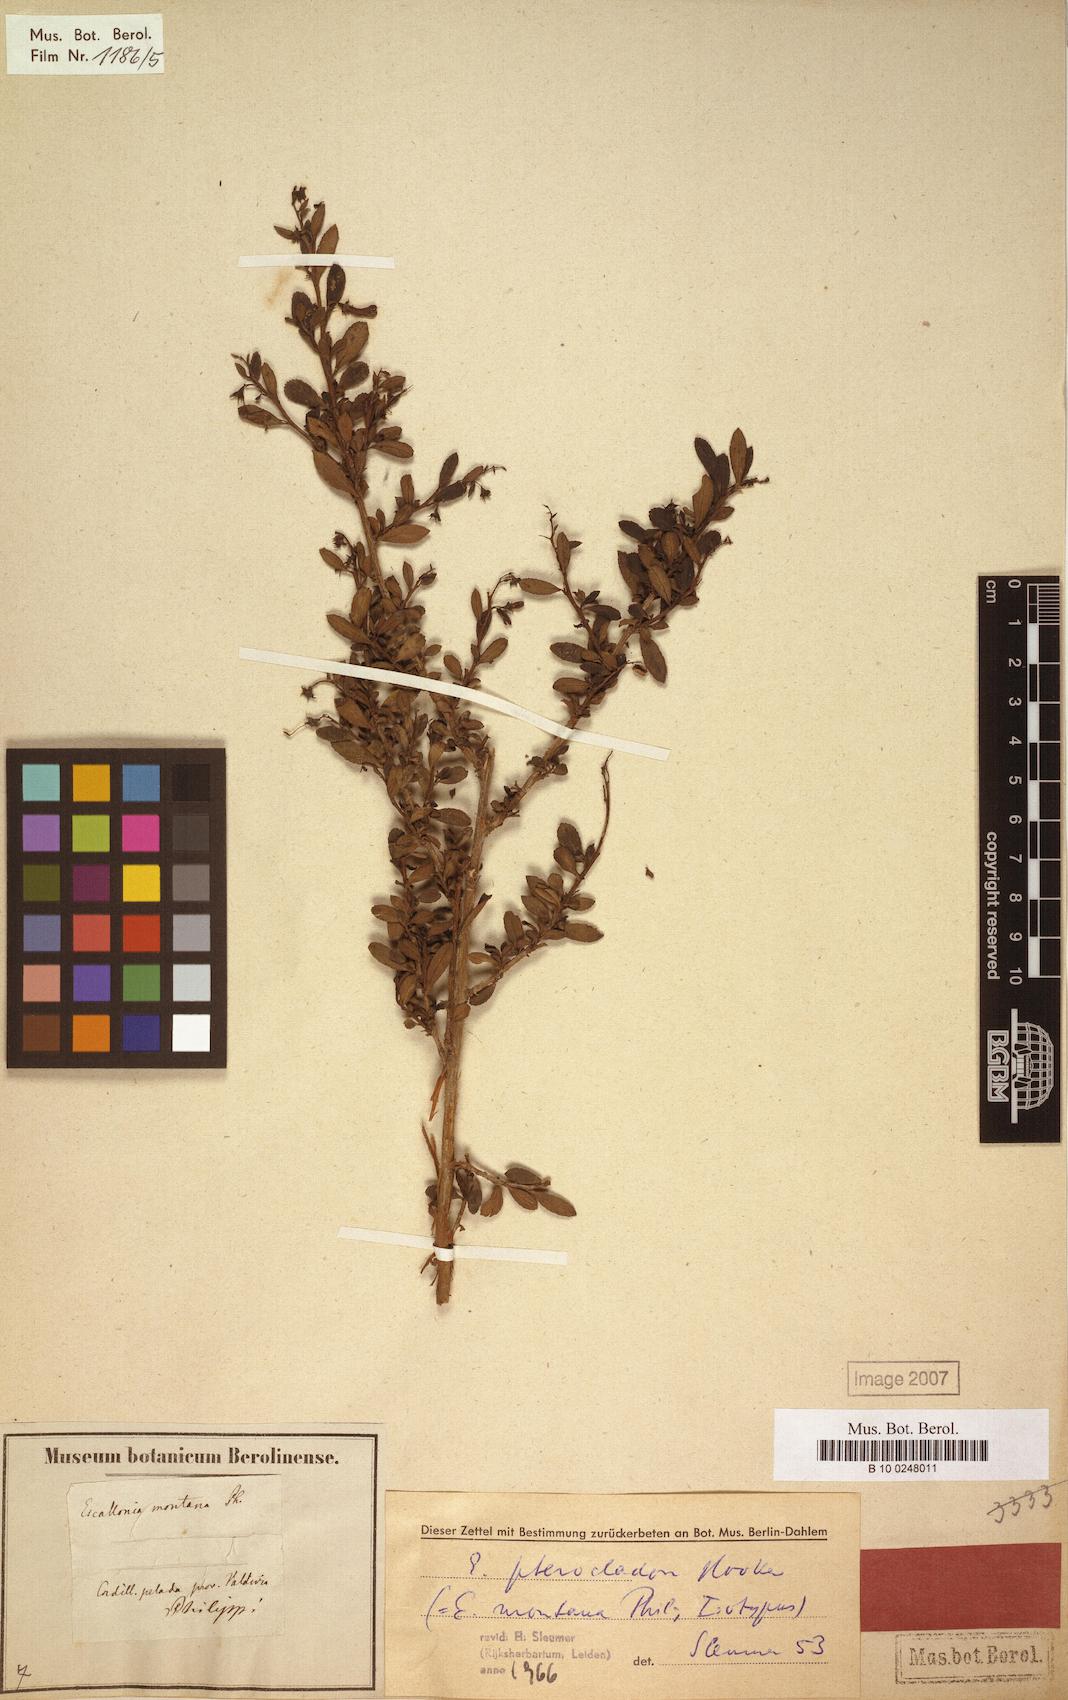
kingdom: Plantae
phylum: Tracheophyta
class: Magnoliopsida
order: Escalloniales
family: Escalloniaceae
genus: Escallonia
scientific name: Escallonia rosea
